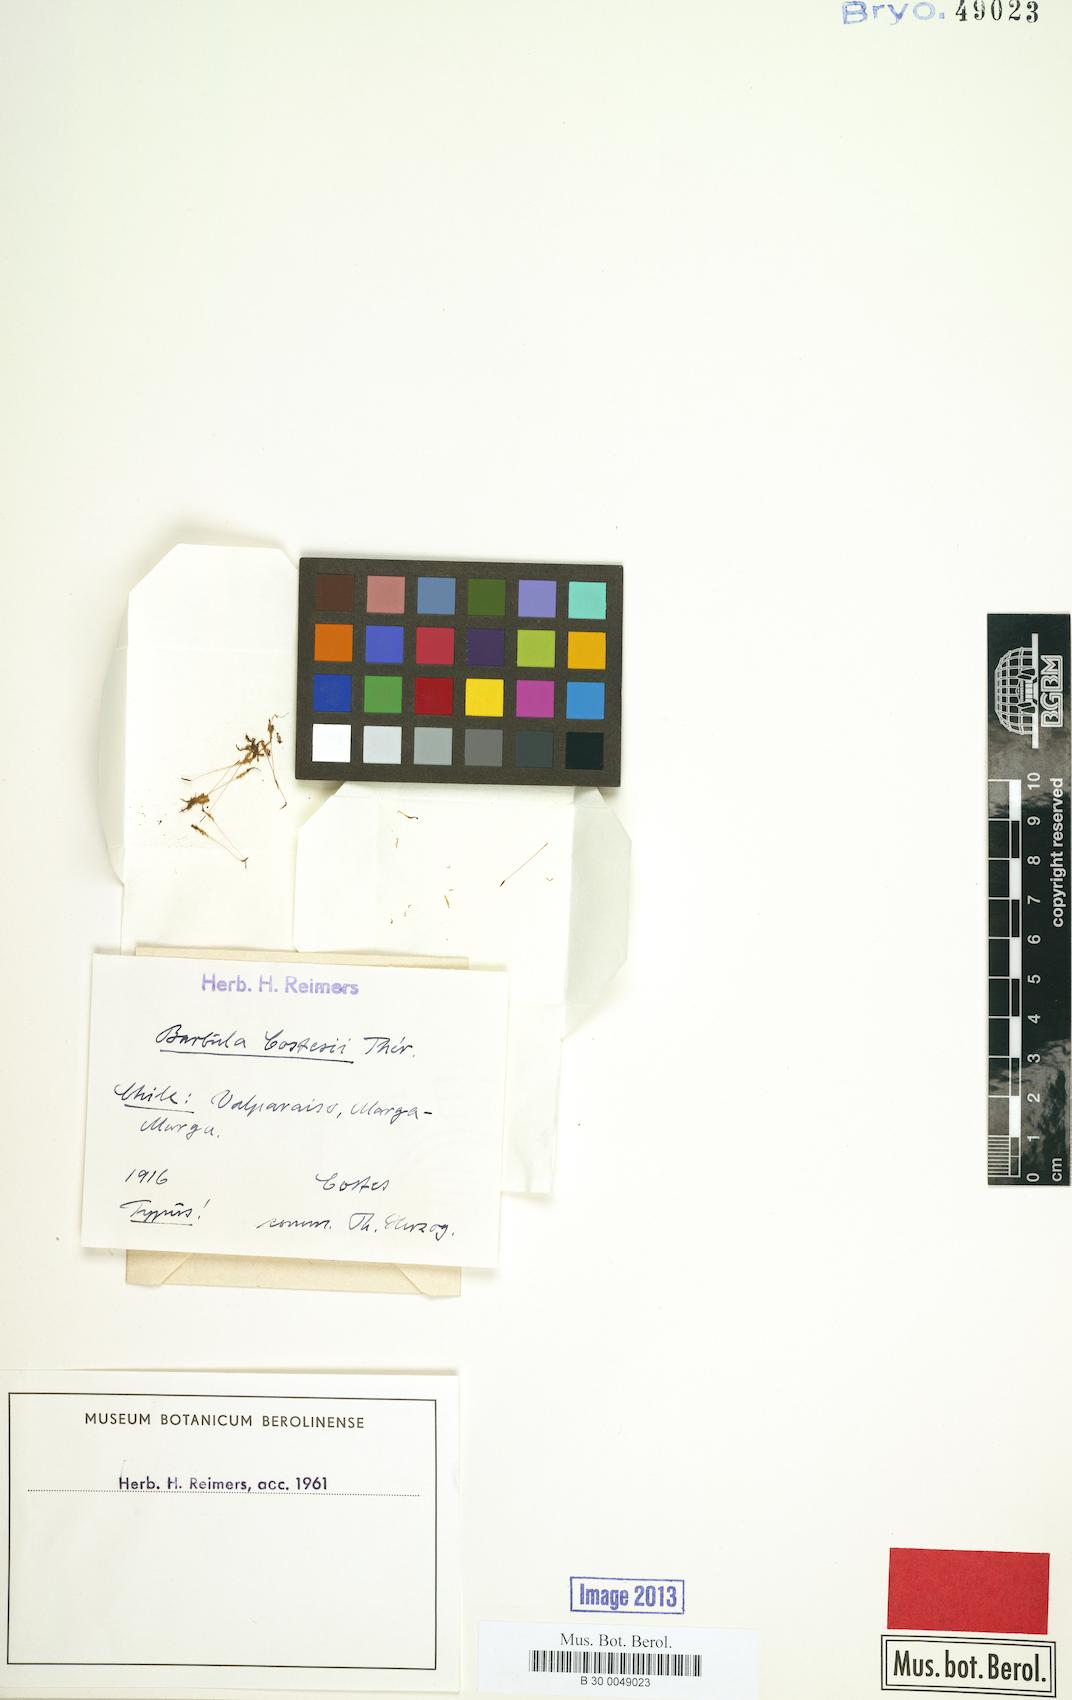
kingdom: Plantae
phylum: Bryophyta
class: Bryopsida
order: Pottiales
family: Pottiaceae
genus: Barbula
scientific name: Barbula costesii
